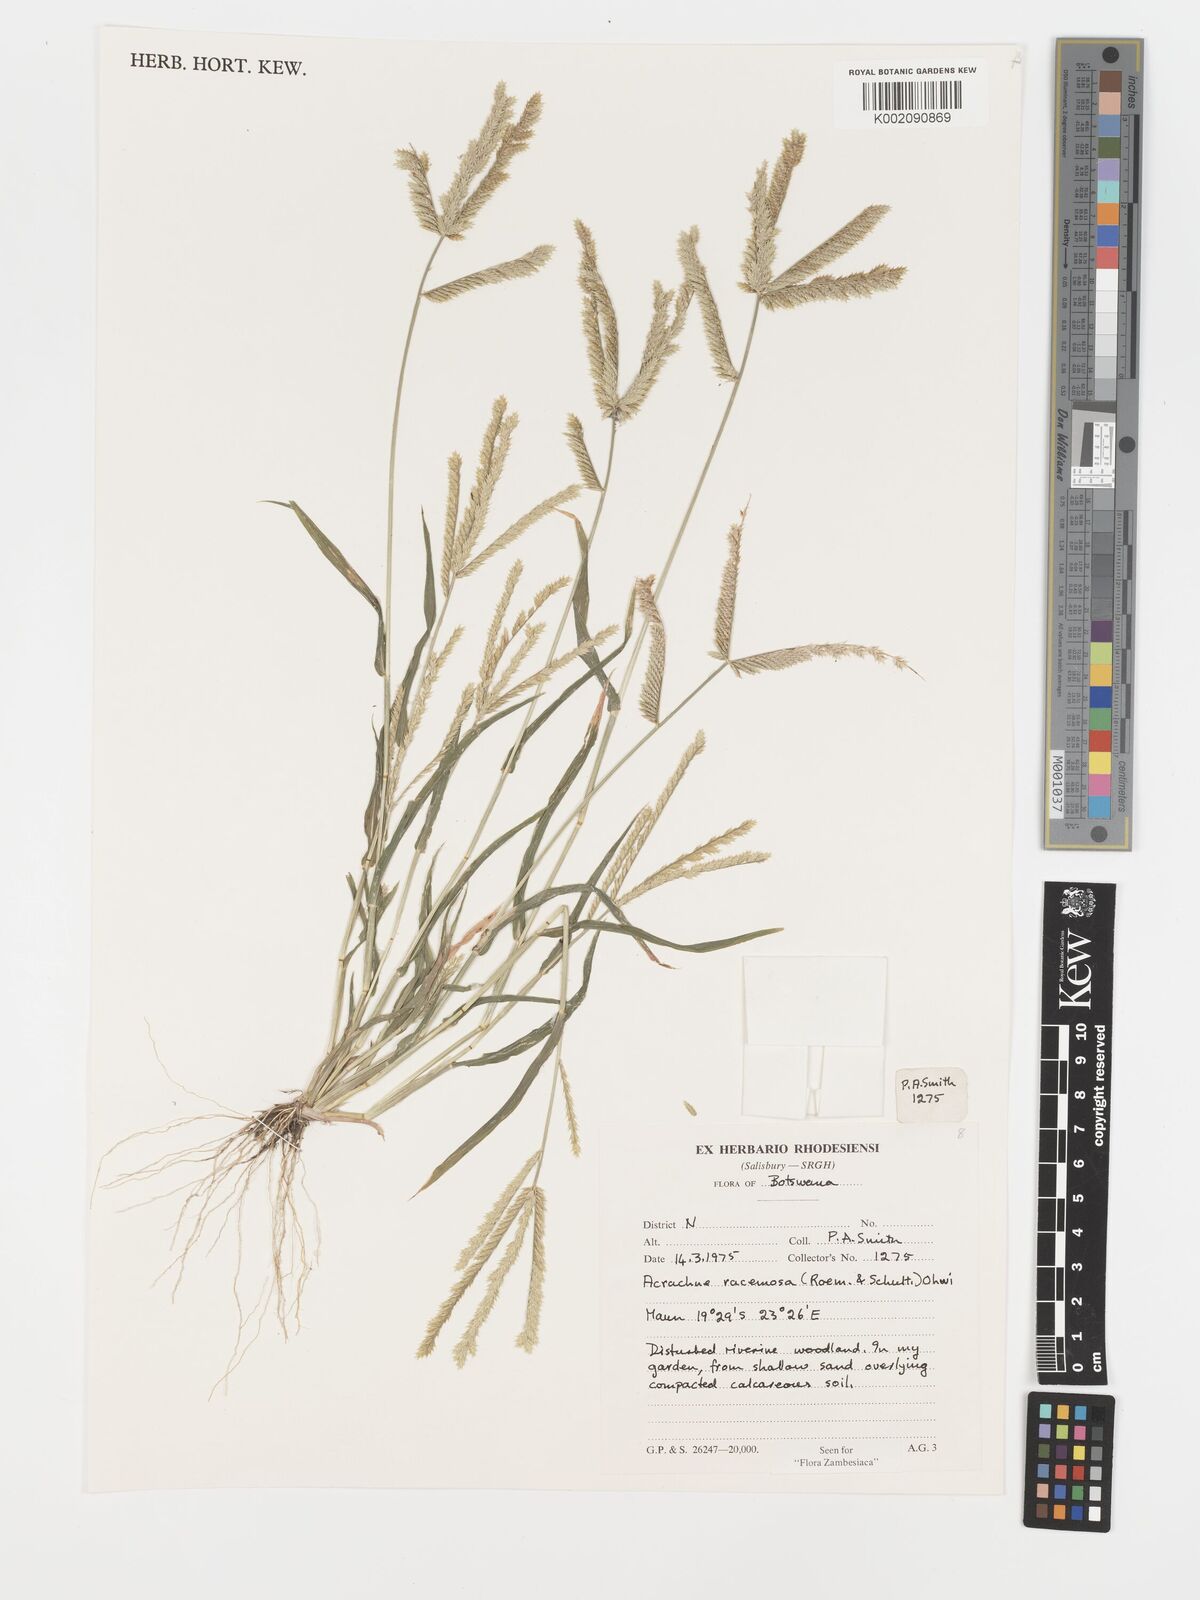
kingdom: Plantae
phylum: Tracheophyta
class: Liliopsida
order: Poales
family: Poaceae
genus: Acrachne
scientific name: Acrachne racemosa
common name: Goosegrass
